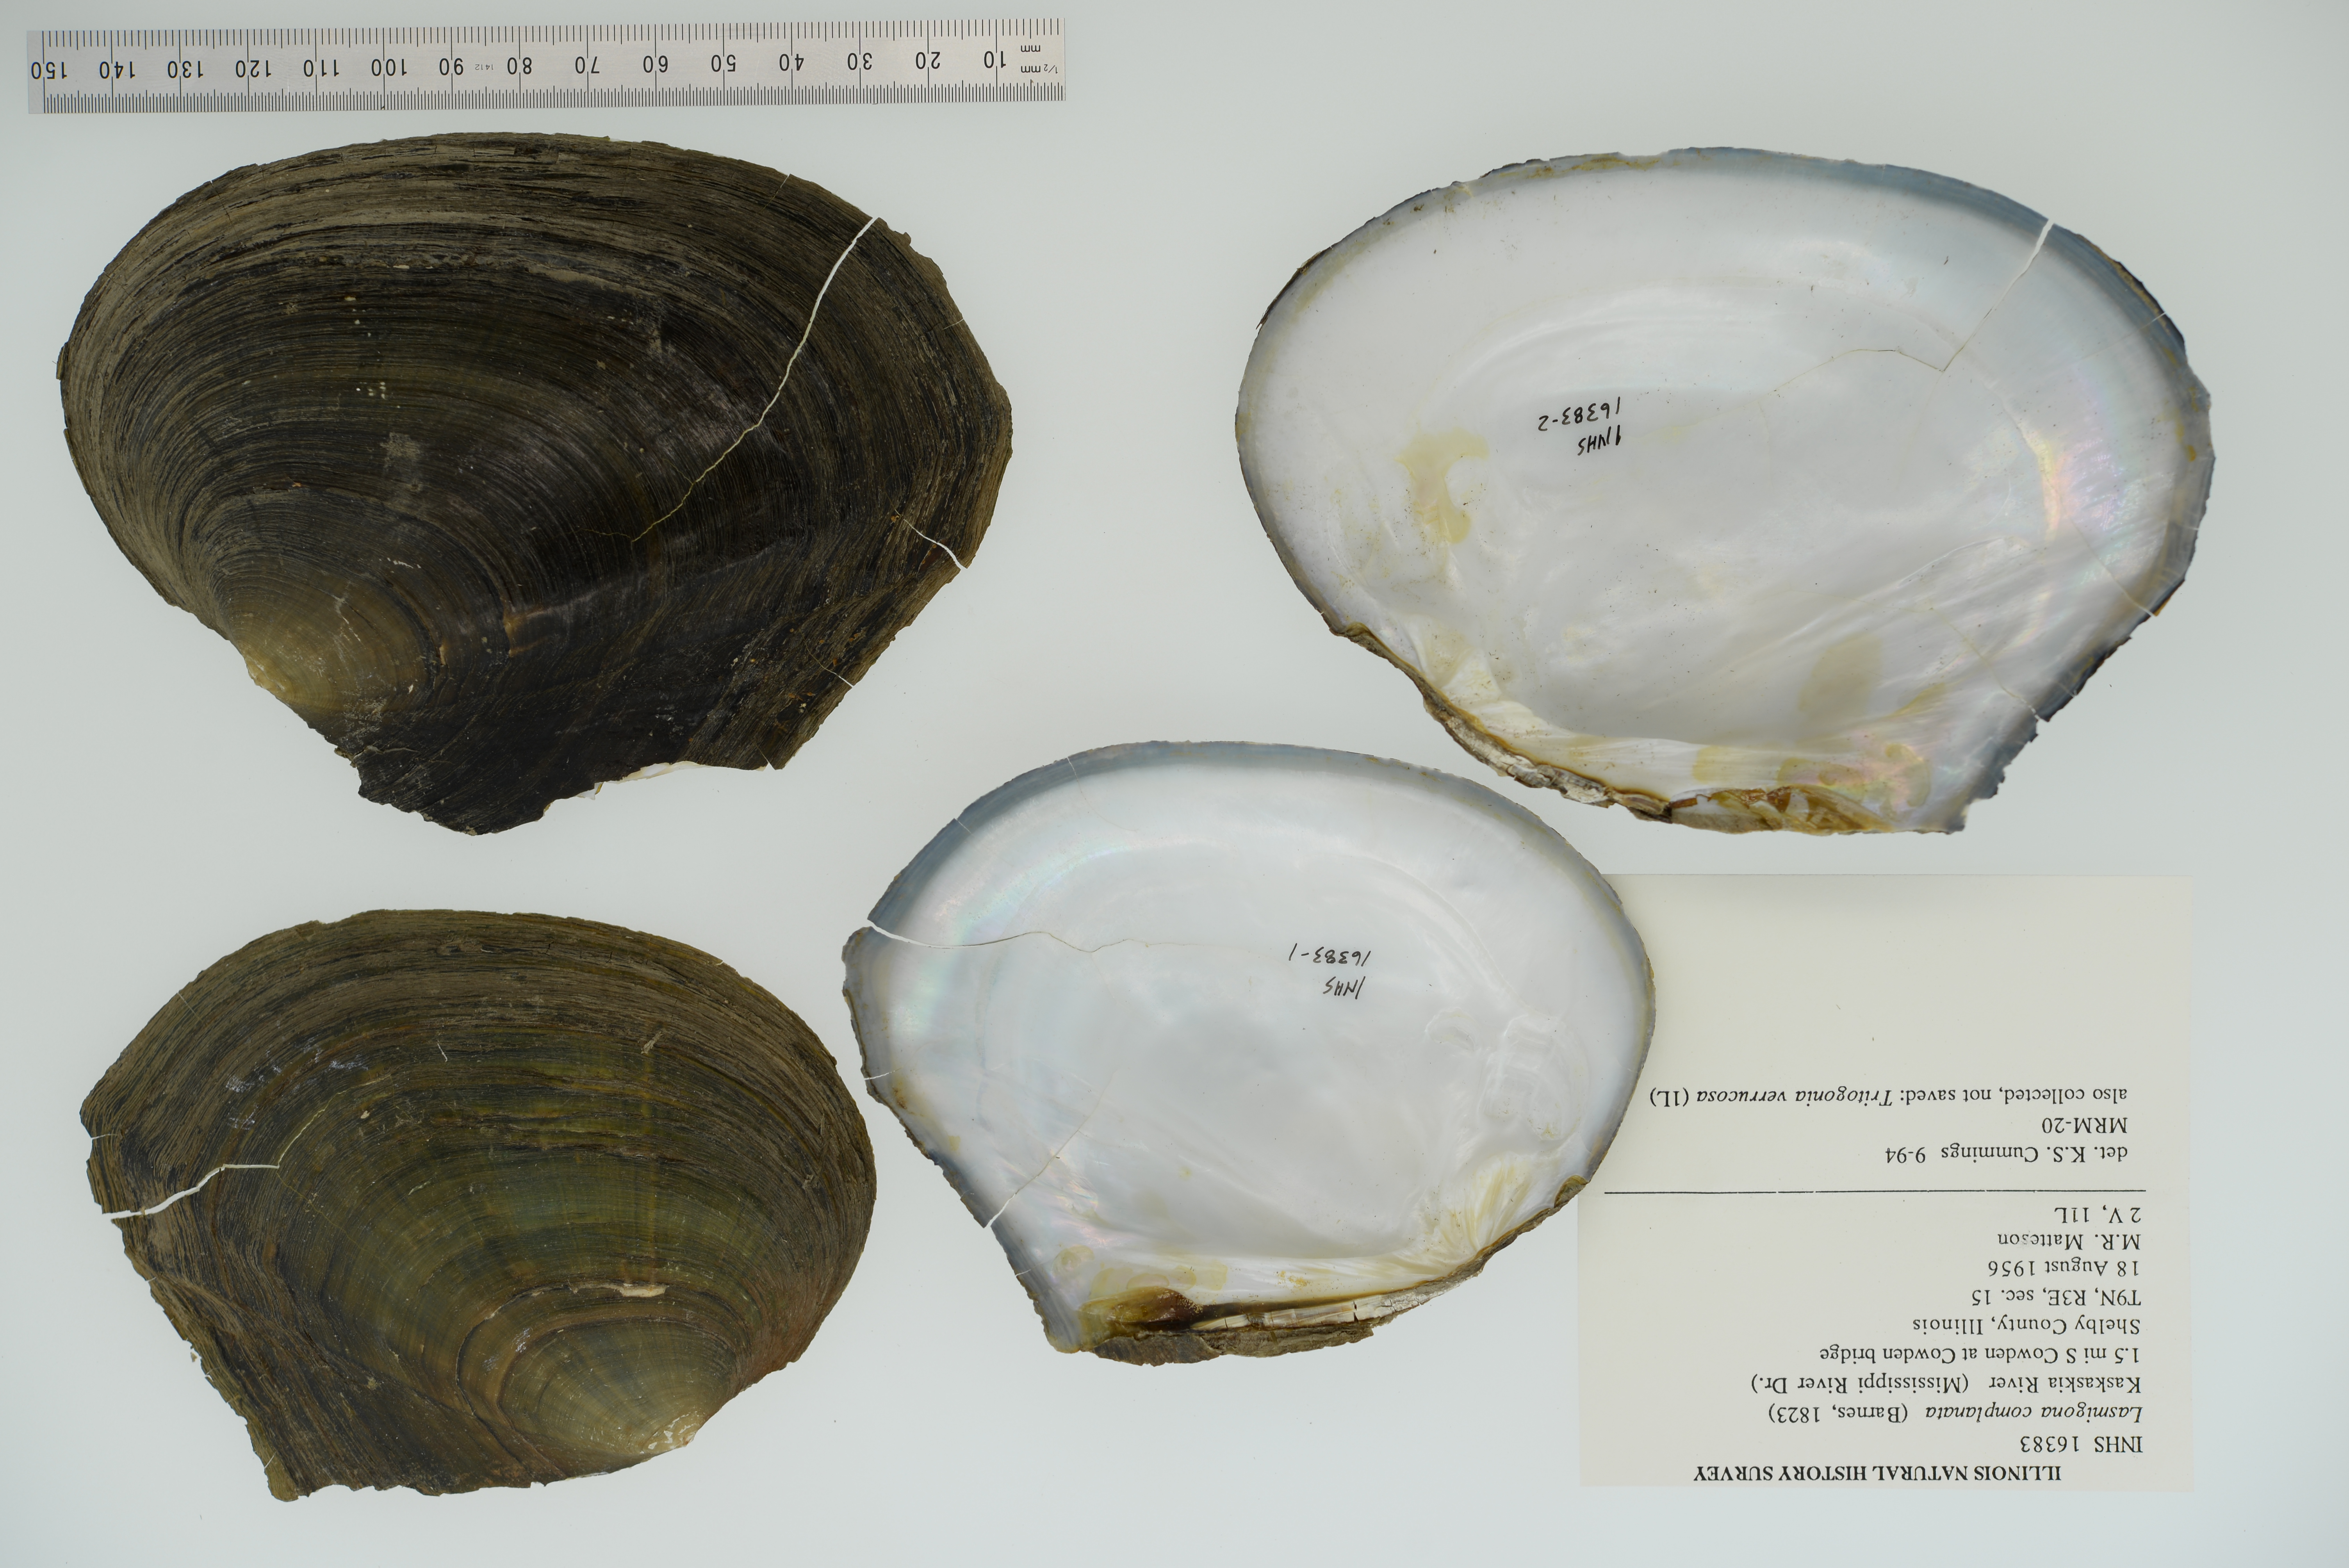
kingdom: Animalia
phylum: Mollusca
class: Bivalvia
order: Unionida
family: Unionidae
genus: Lasmigona
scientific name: Lasmigona complanata
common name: White heelsplitter
